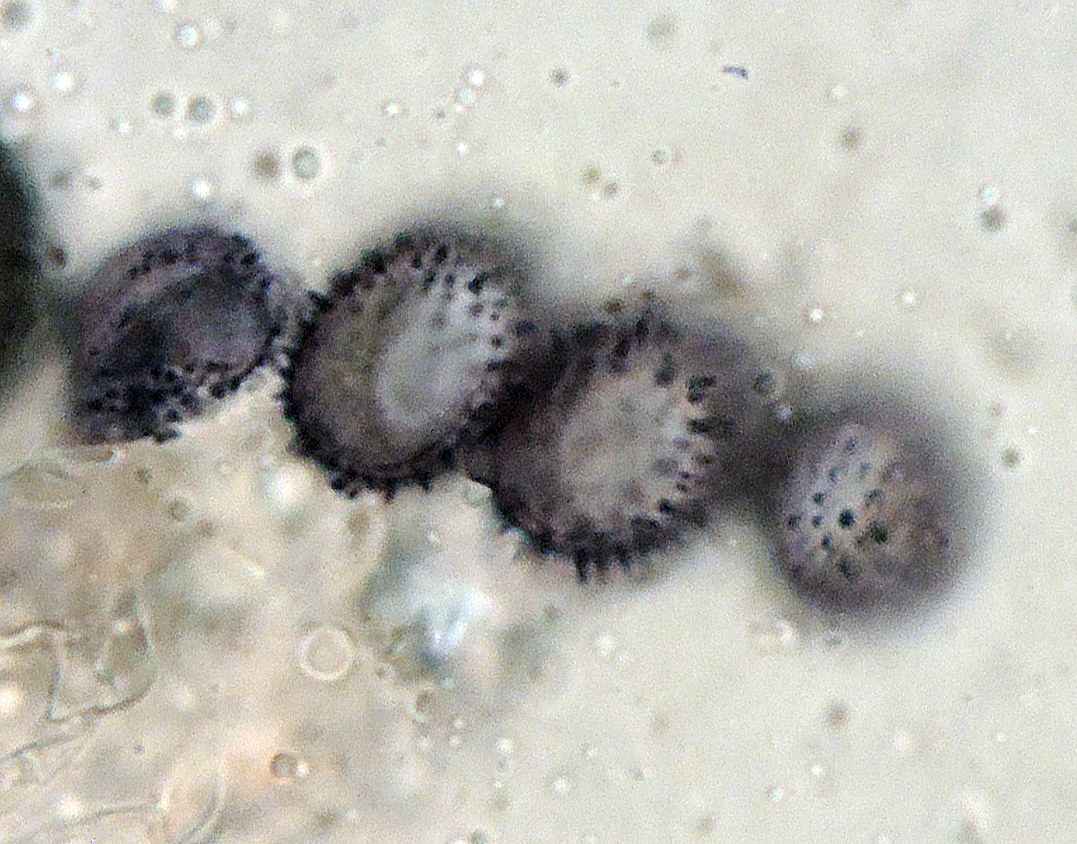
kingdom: Fungi
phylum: Basidiomycota
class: Agaricomycetes
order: Russulales
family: Stereaceae
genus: Aleurodiscus
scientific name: Aleurodiscus aurantius
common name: brombær-skiveskorpe
